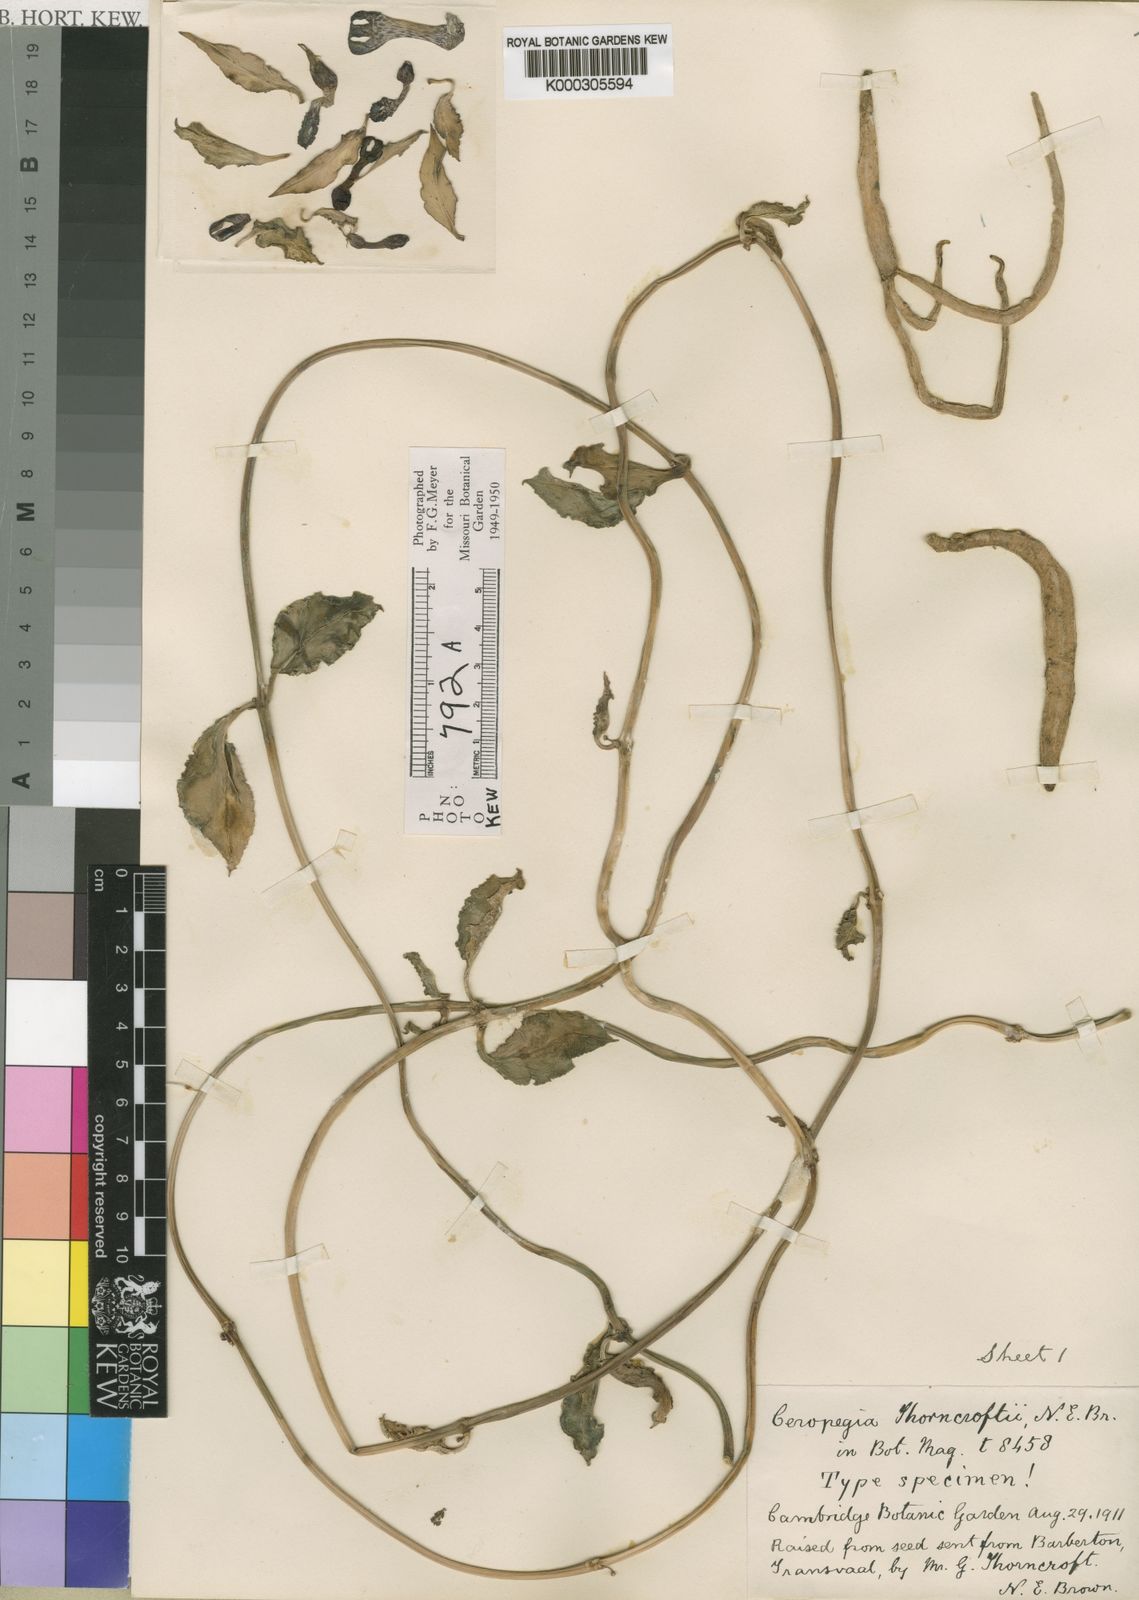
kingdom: Plantae
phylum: Tracheophyta
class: Magnoliopsida
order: Gentianales
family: Apocynaceae
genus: Ceropegia
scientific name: Ceropegia brachyceras
